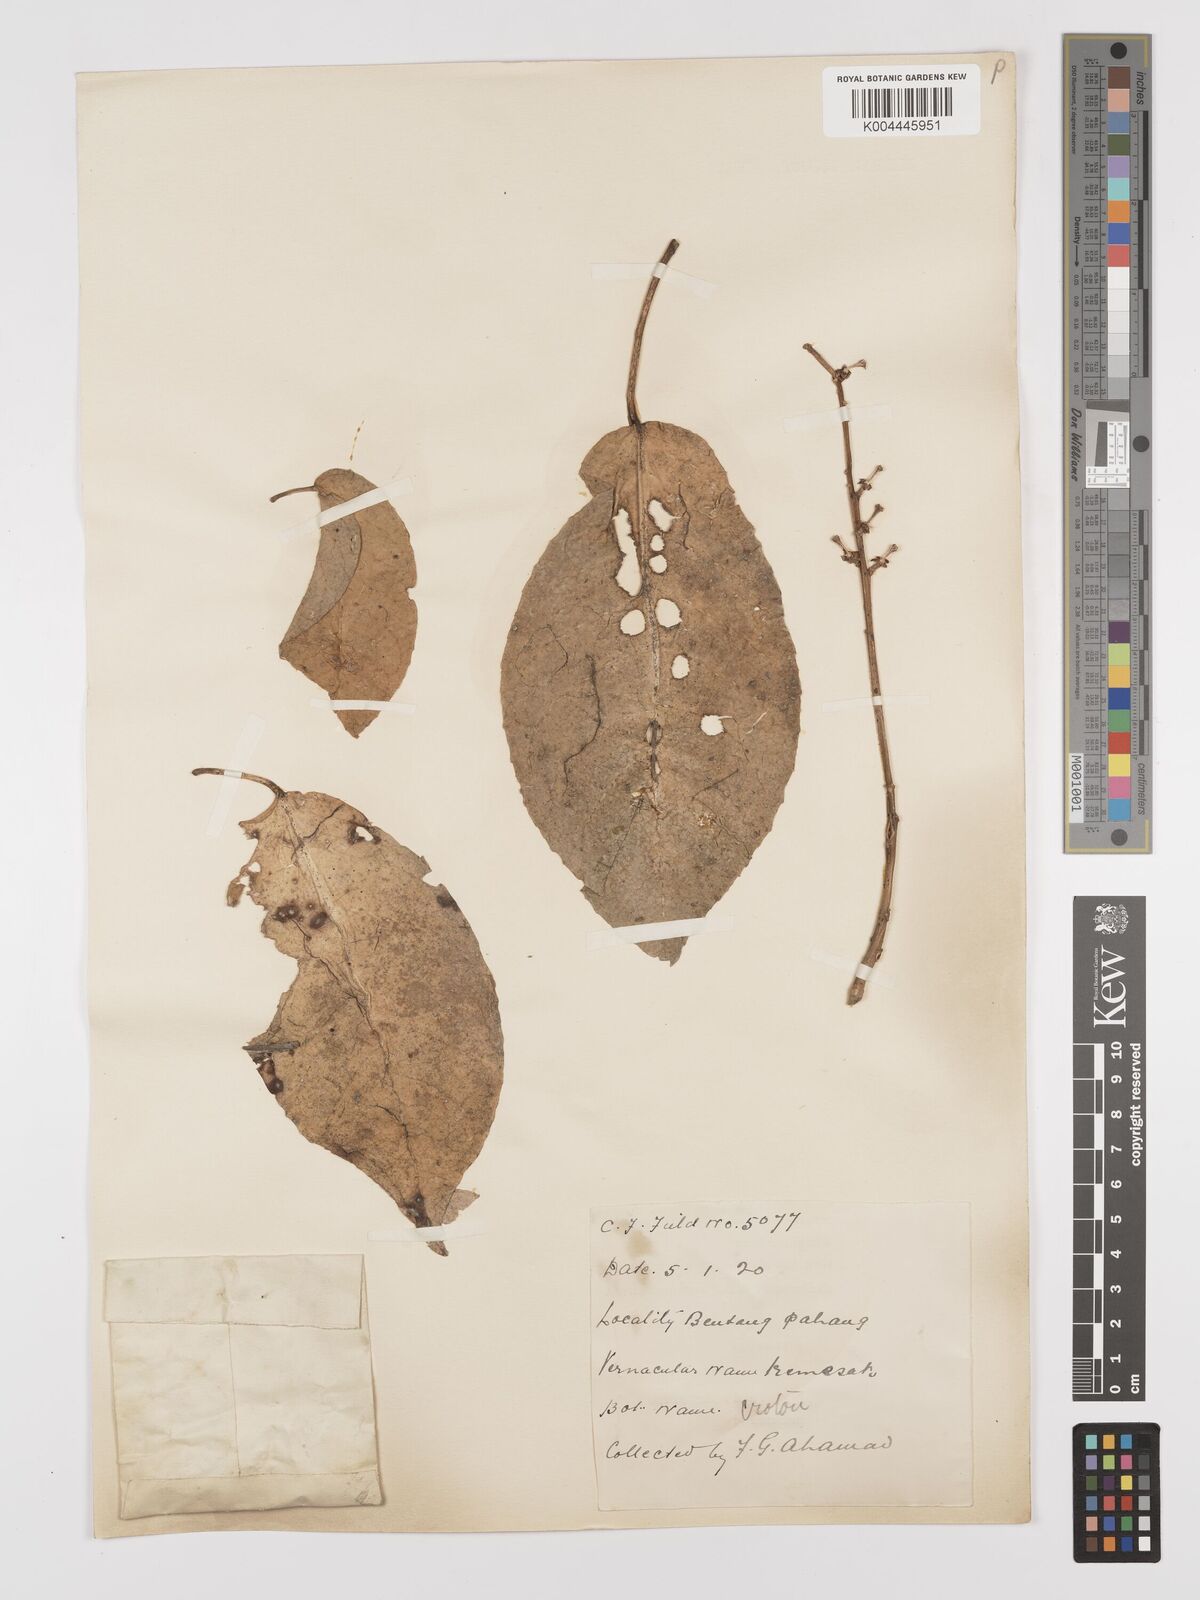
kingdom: Plantae
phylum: Tracheophyta
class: Magnoliopsida
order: Malpighiales
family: Euphorbiaceae
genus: Croton
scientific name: Croton griffithii
